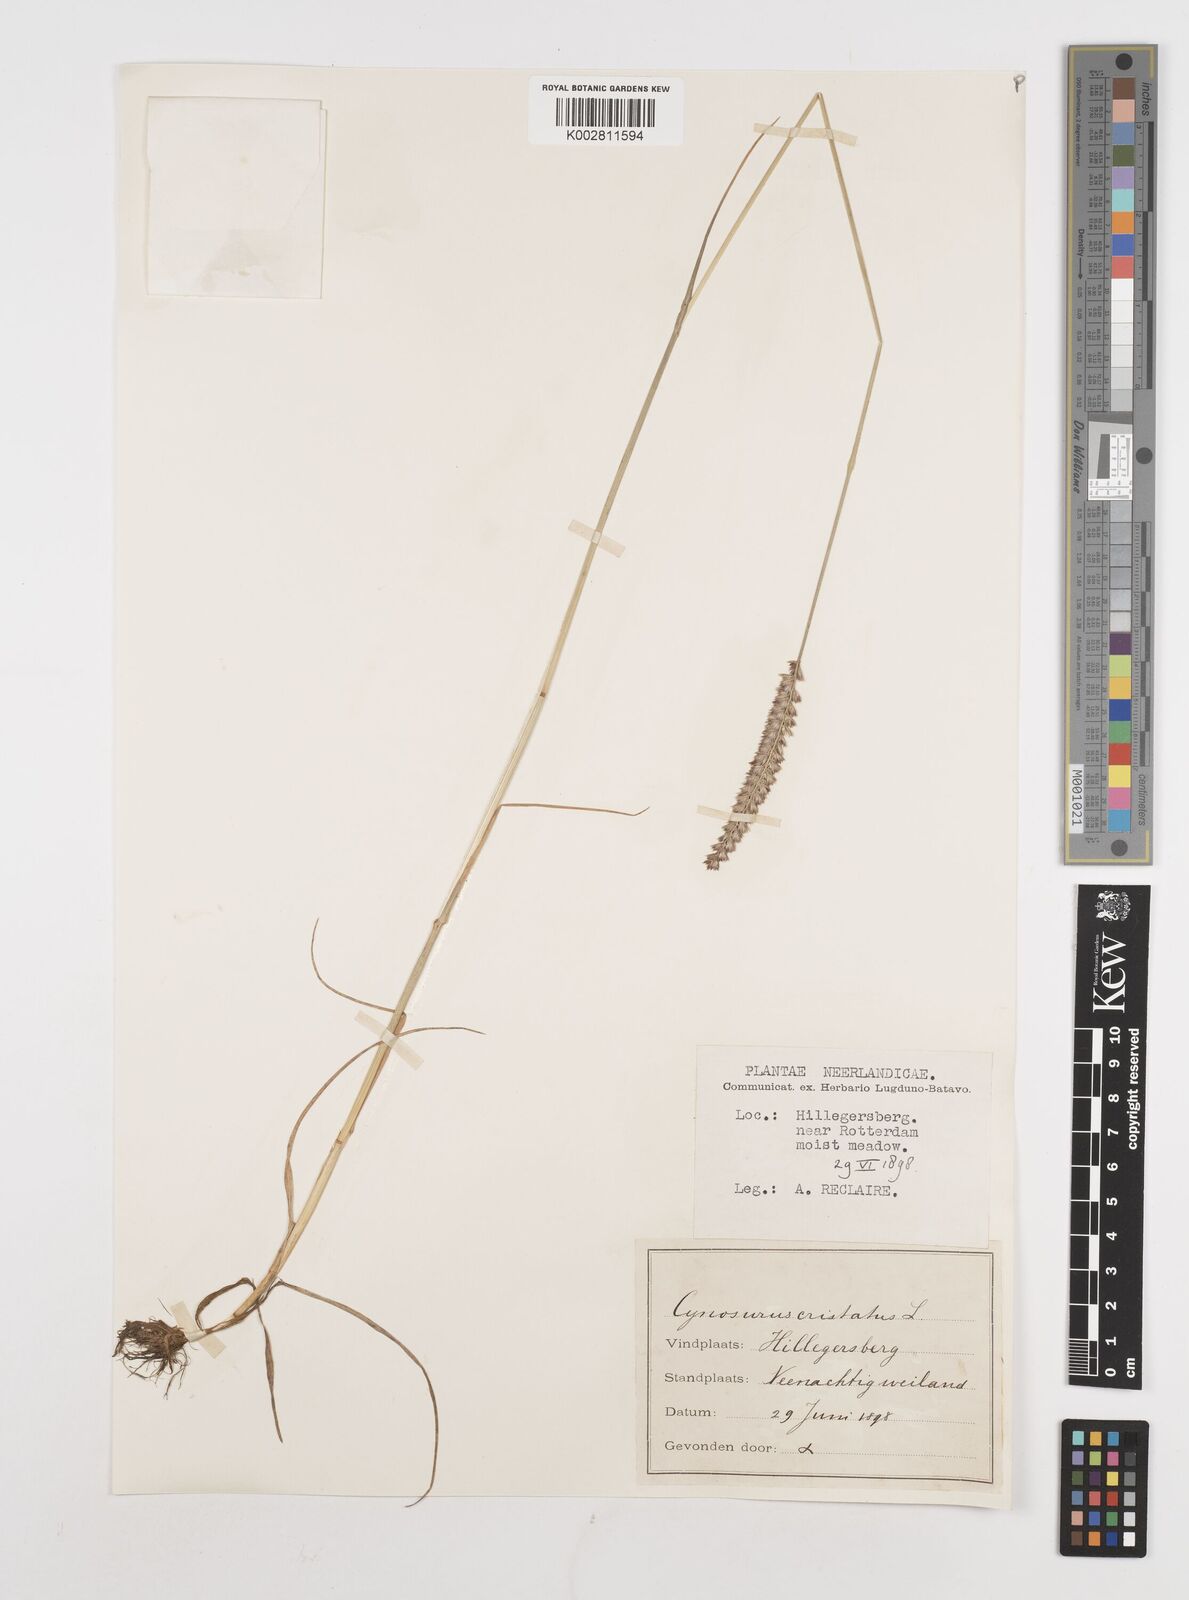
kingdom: Plantae
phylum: Tracheophyta
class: Liliopsida
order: Poales
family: Poaceae
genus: Cynosurus
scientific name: Cynosurus cristatus
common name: Crested dog's-tail
